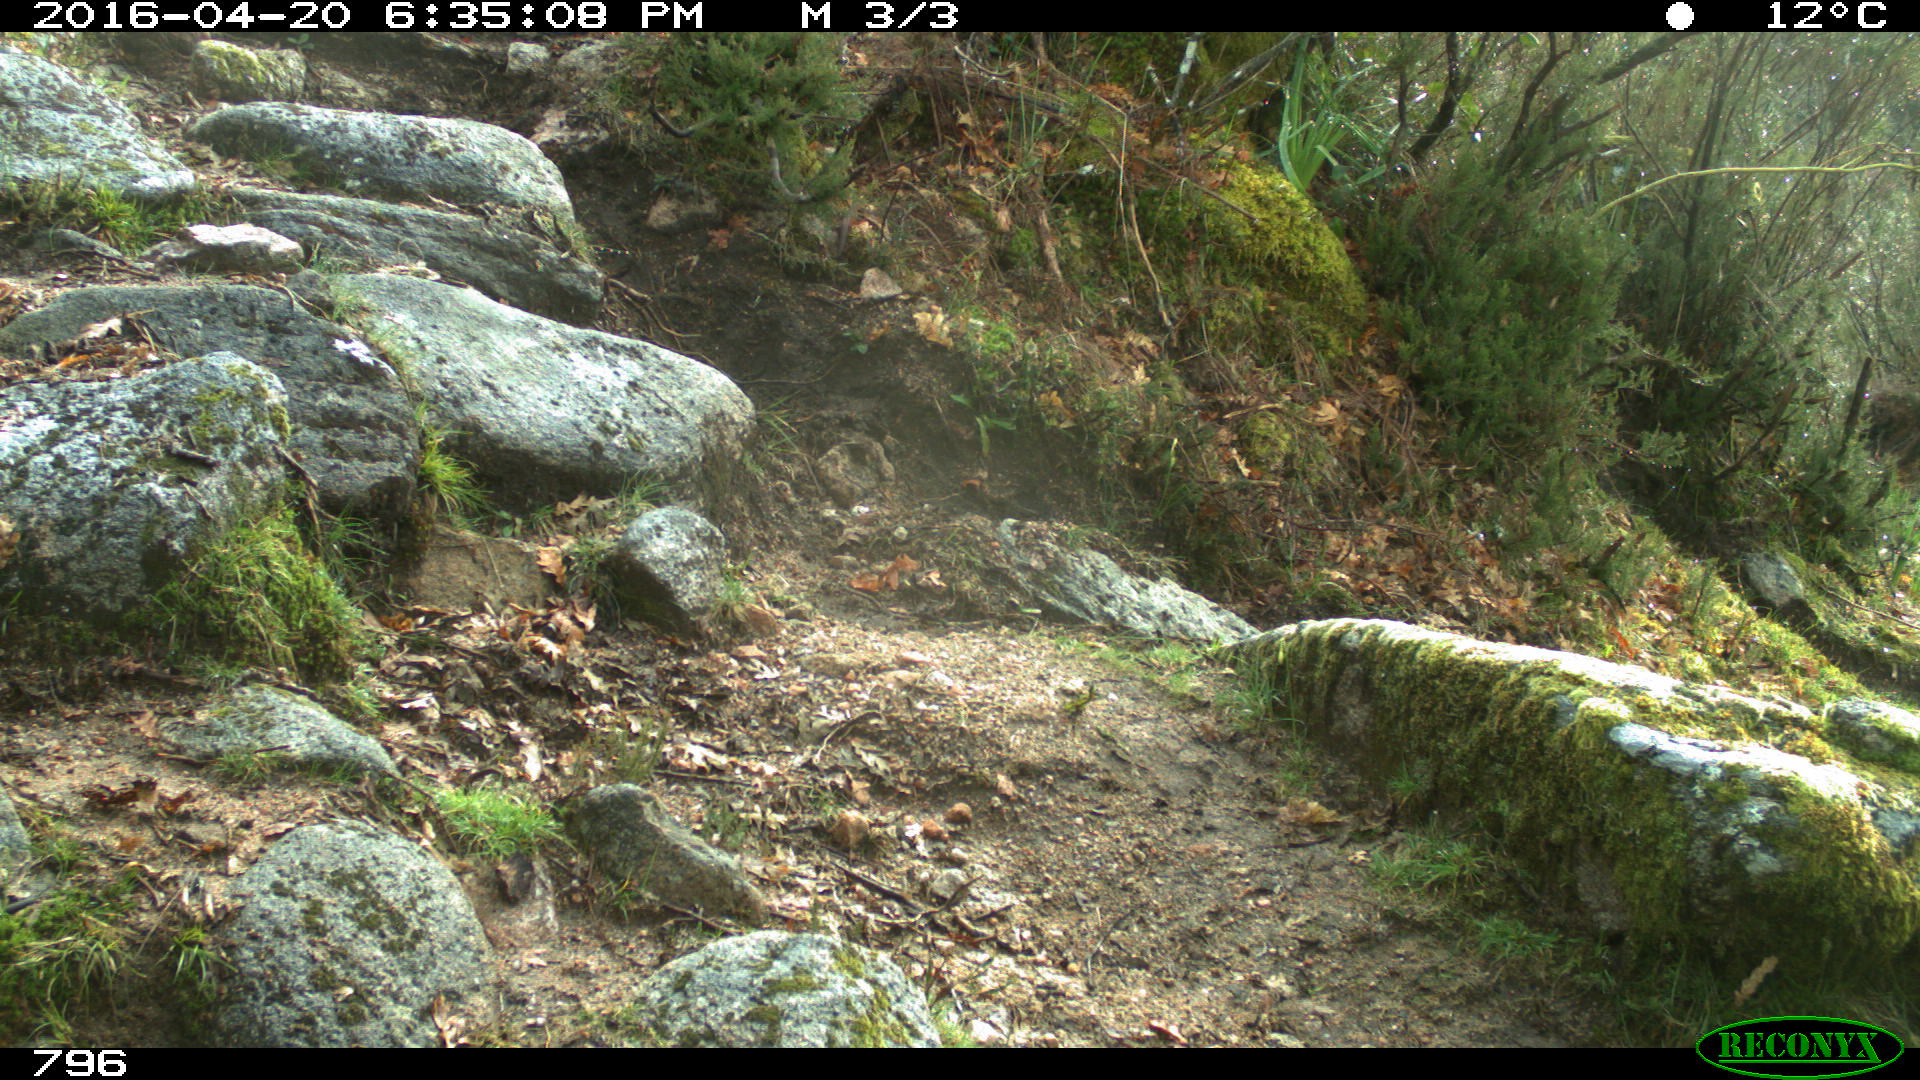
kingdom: Animalia
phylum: Chordata
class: Mammalia
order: Artiodactyla
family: Bovidae
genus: Bos
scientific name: Bos taurus
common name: Domesticated cattle
